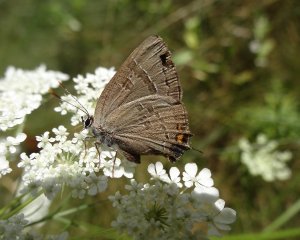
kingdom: Animalia
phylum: Arthropoda
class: Insecta
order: Lepidoptera
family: Lycaenidae
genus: Satyrium
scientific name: Satyrium calanus
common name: Banded Hairstreak
